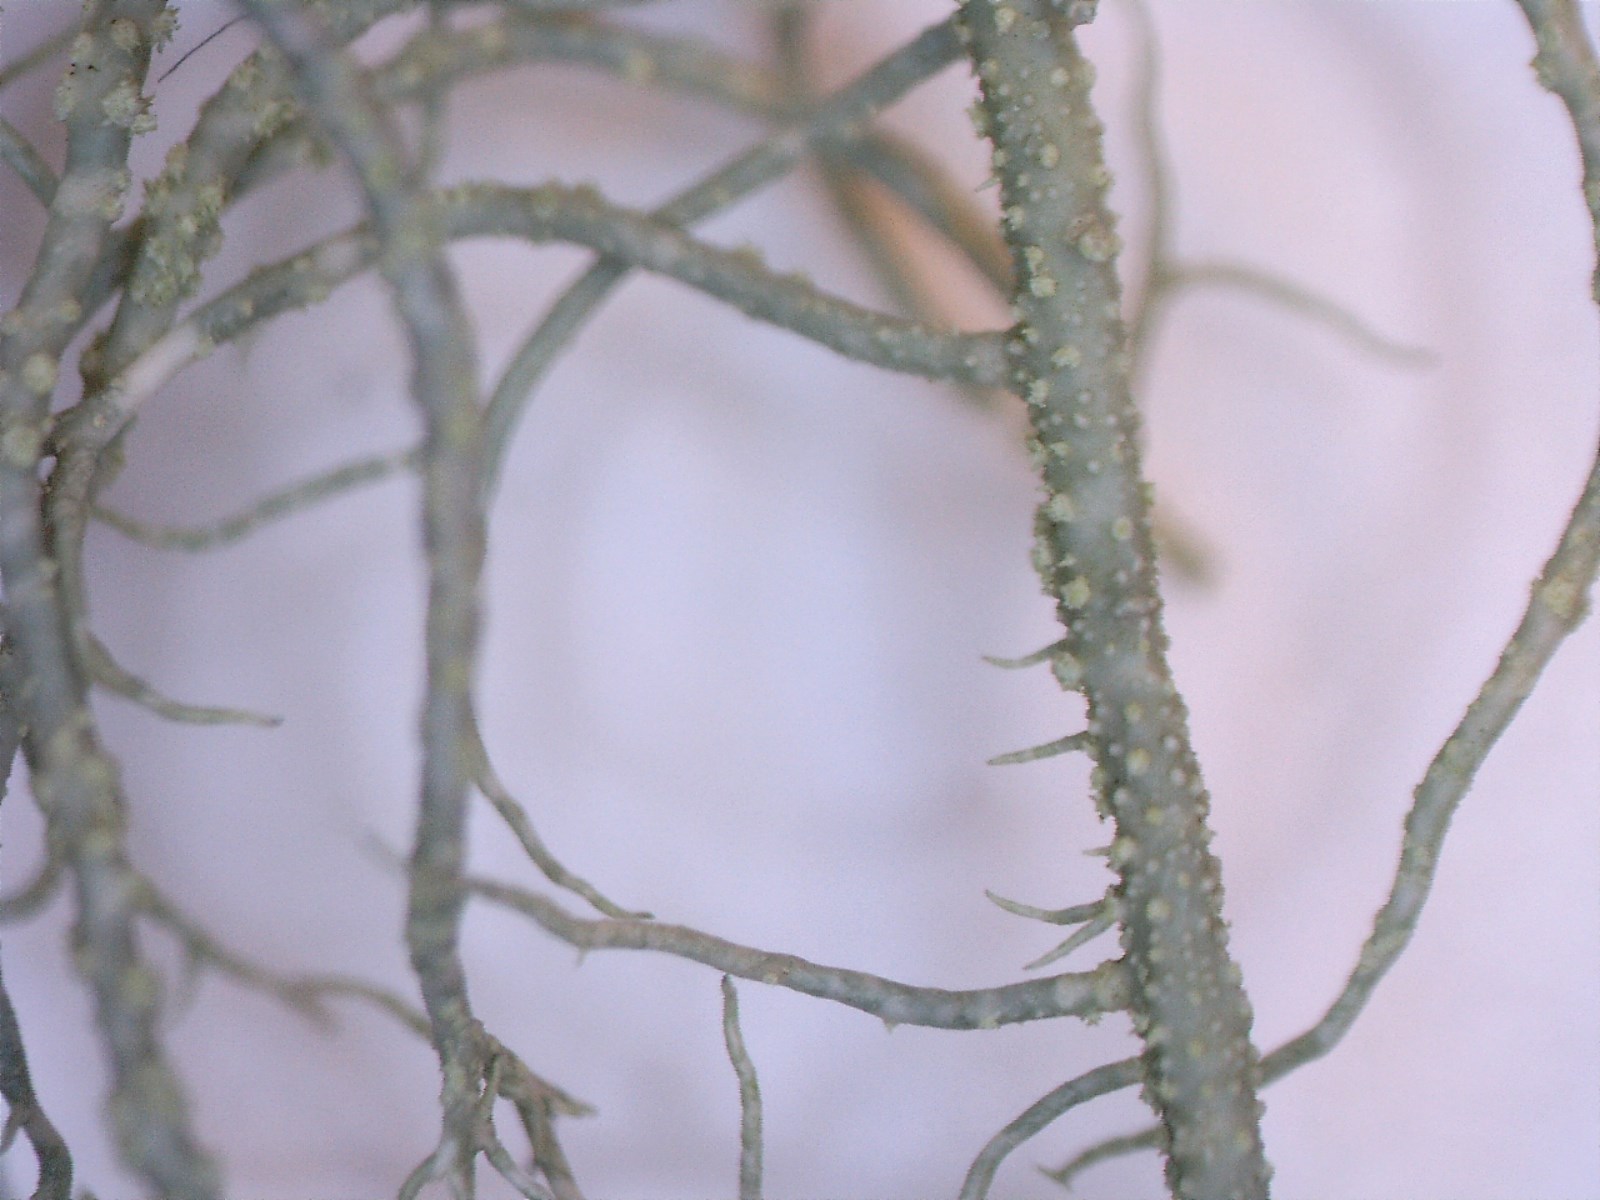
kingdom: Fungi
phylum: Ascomycota
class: Lecanoromycetes
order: Lecanorales
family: Parmeliaceae
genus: Usnea
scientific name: Usnea glabrescens
